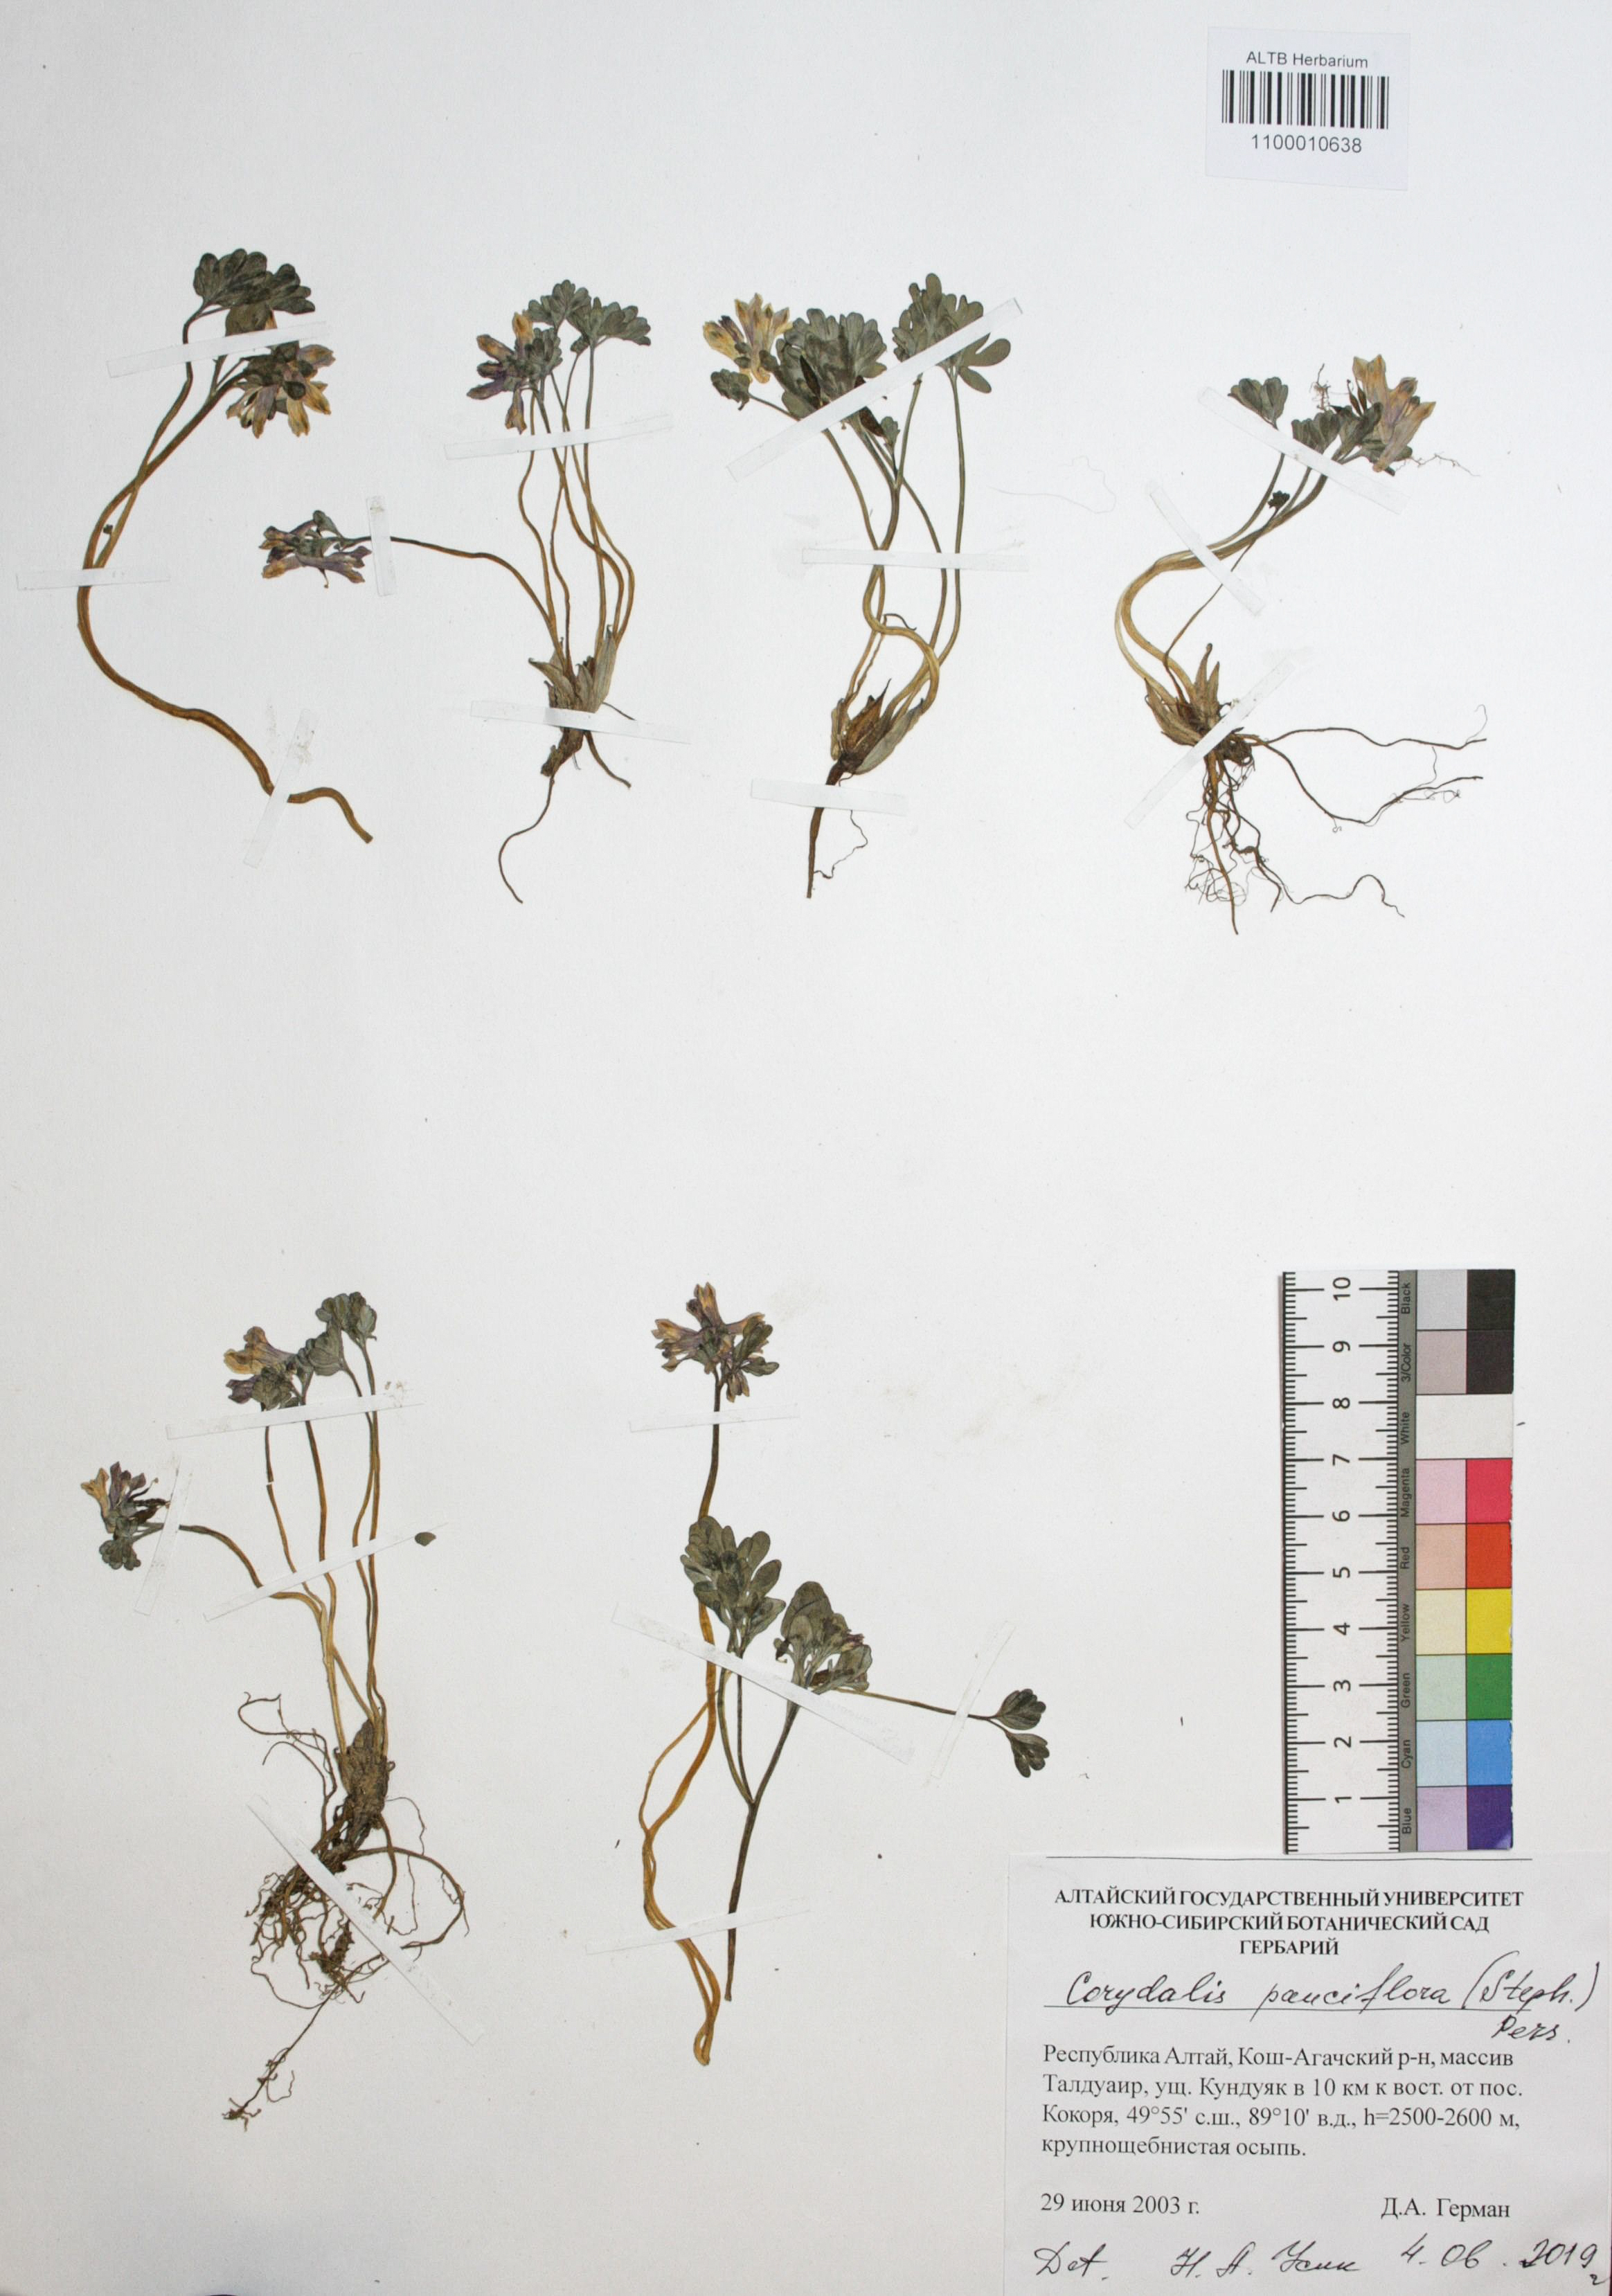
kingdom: Plantae
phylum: Tracheophyta
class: Magnoliopsida
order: Ranunculales
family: Papaveraceae
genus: Corydalis
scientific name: Corydalis pauciflora
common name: Blue corydalis
